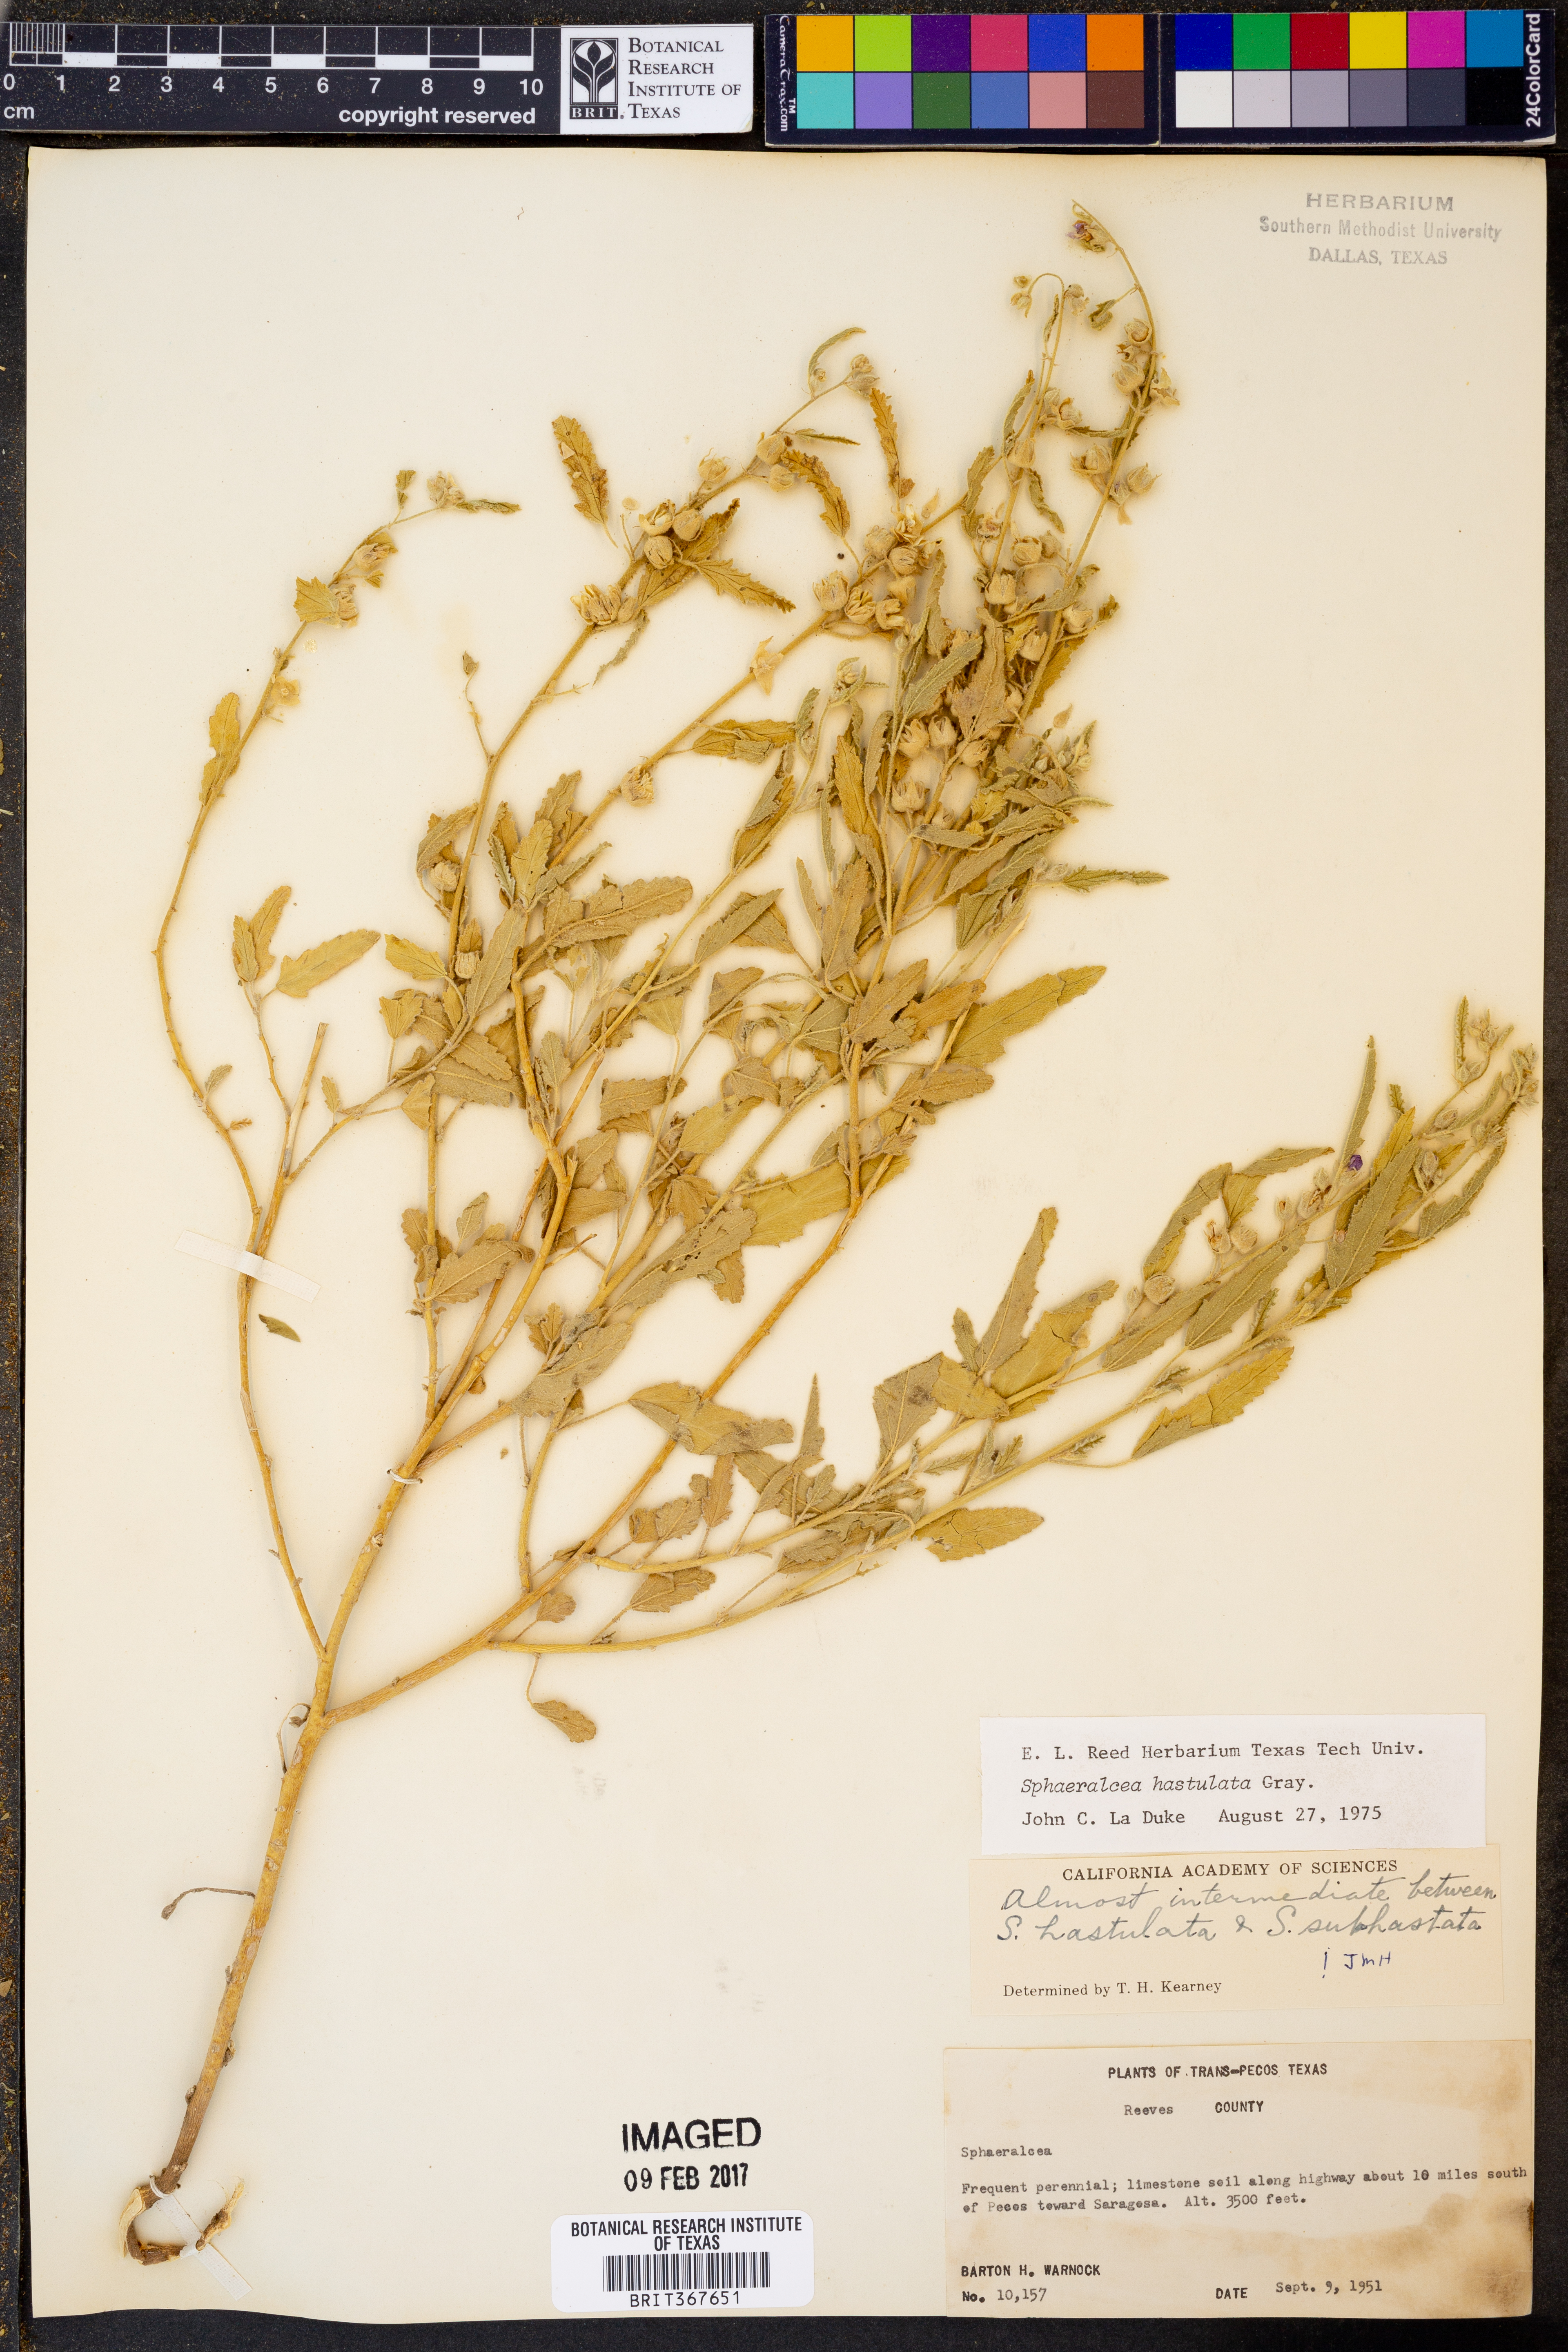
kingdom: Plantae
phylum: Tracheophyta
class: Magnoliopsida
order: Malvales
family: Malvaceae
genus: Sphaeralcea
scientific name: Sphaeralcea hastulata
